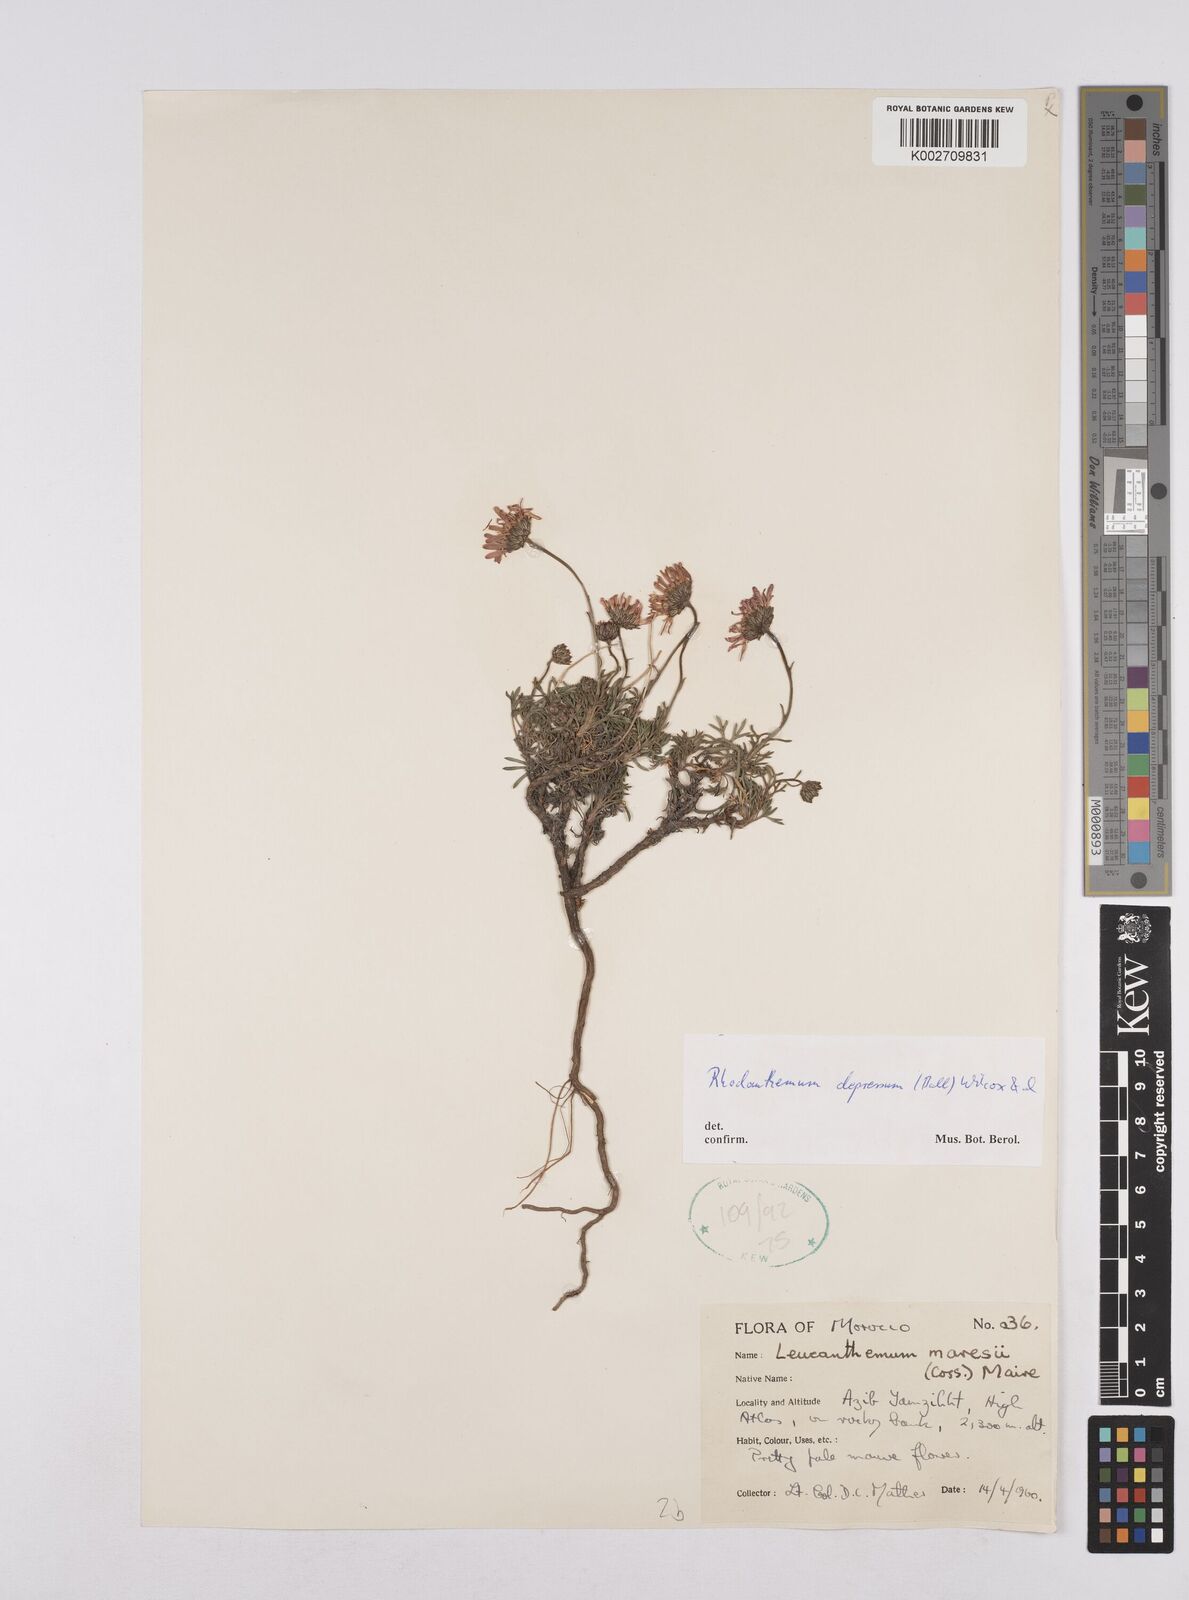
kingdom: Plantae
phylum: Tracheophyta
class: Magnoliopsida
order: Asterales
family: Asteraceae
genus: Rhodanthemum
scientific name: Rhodanthemum depressum
